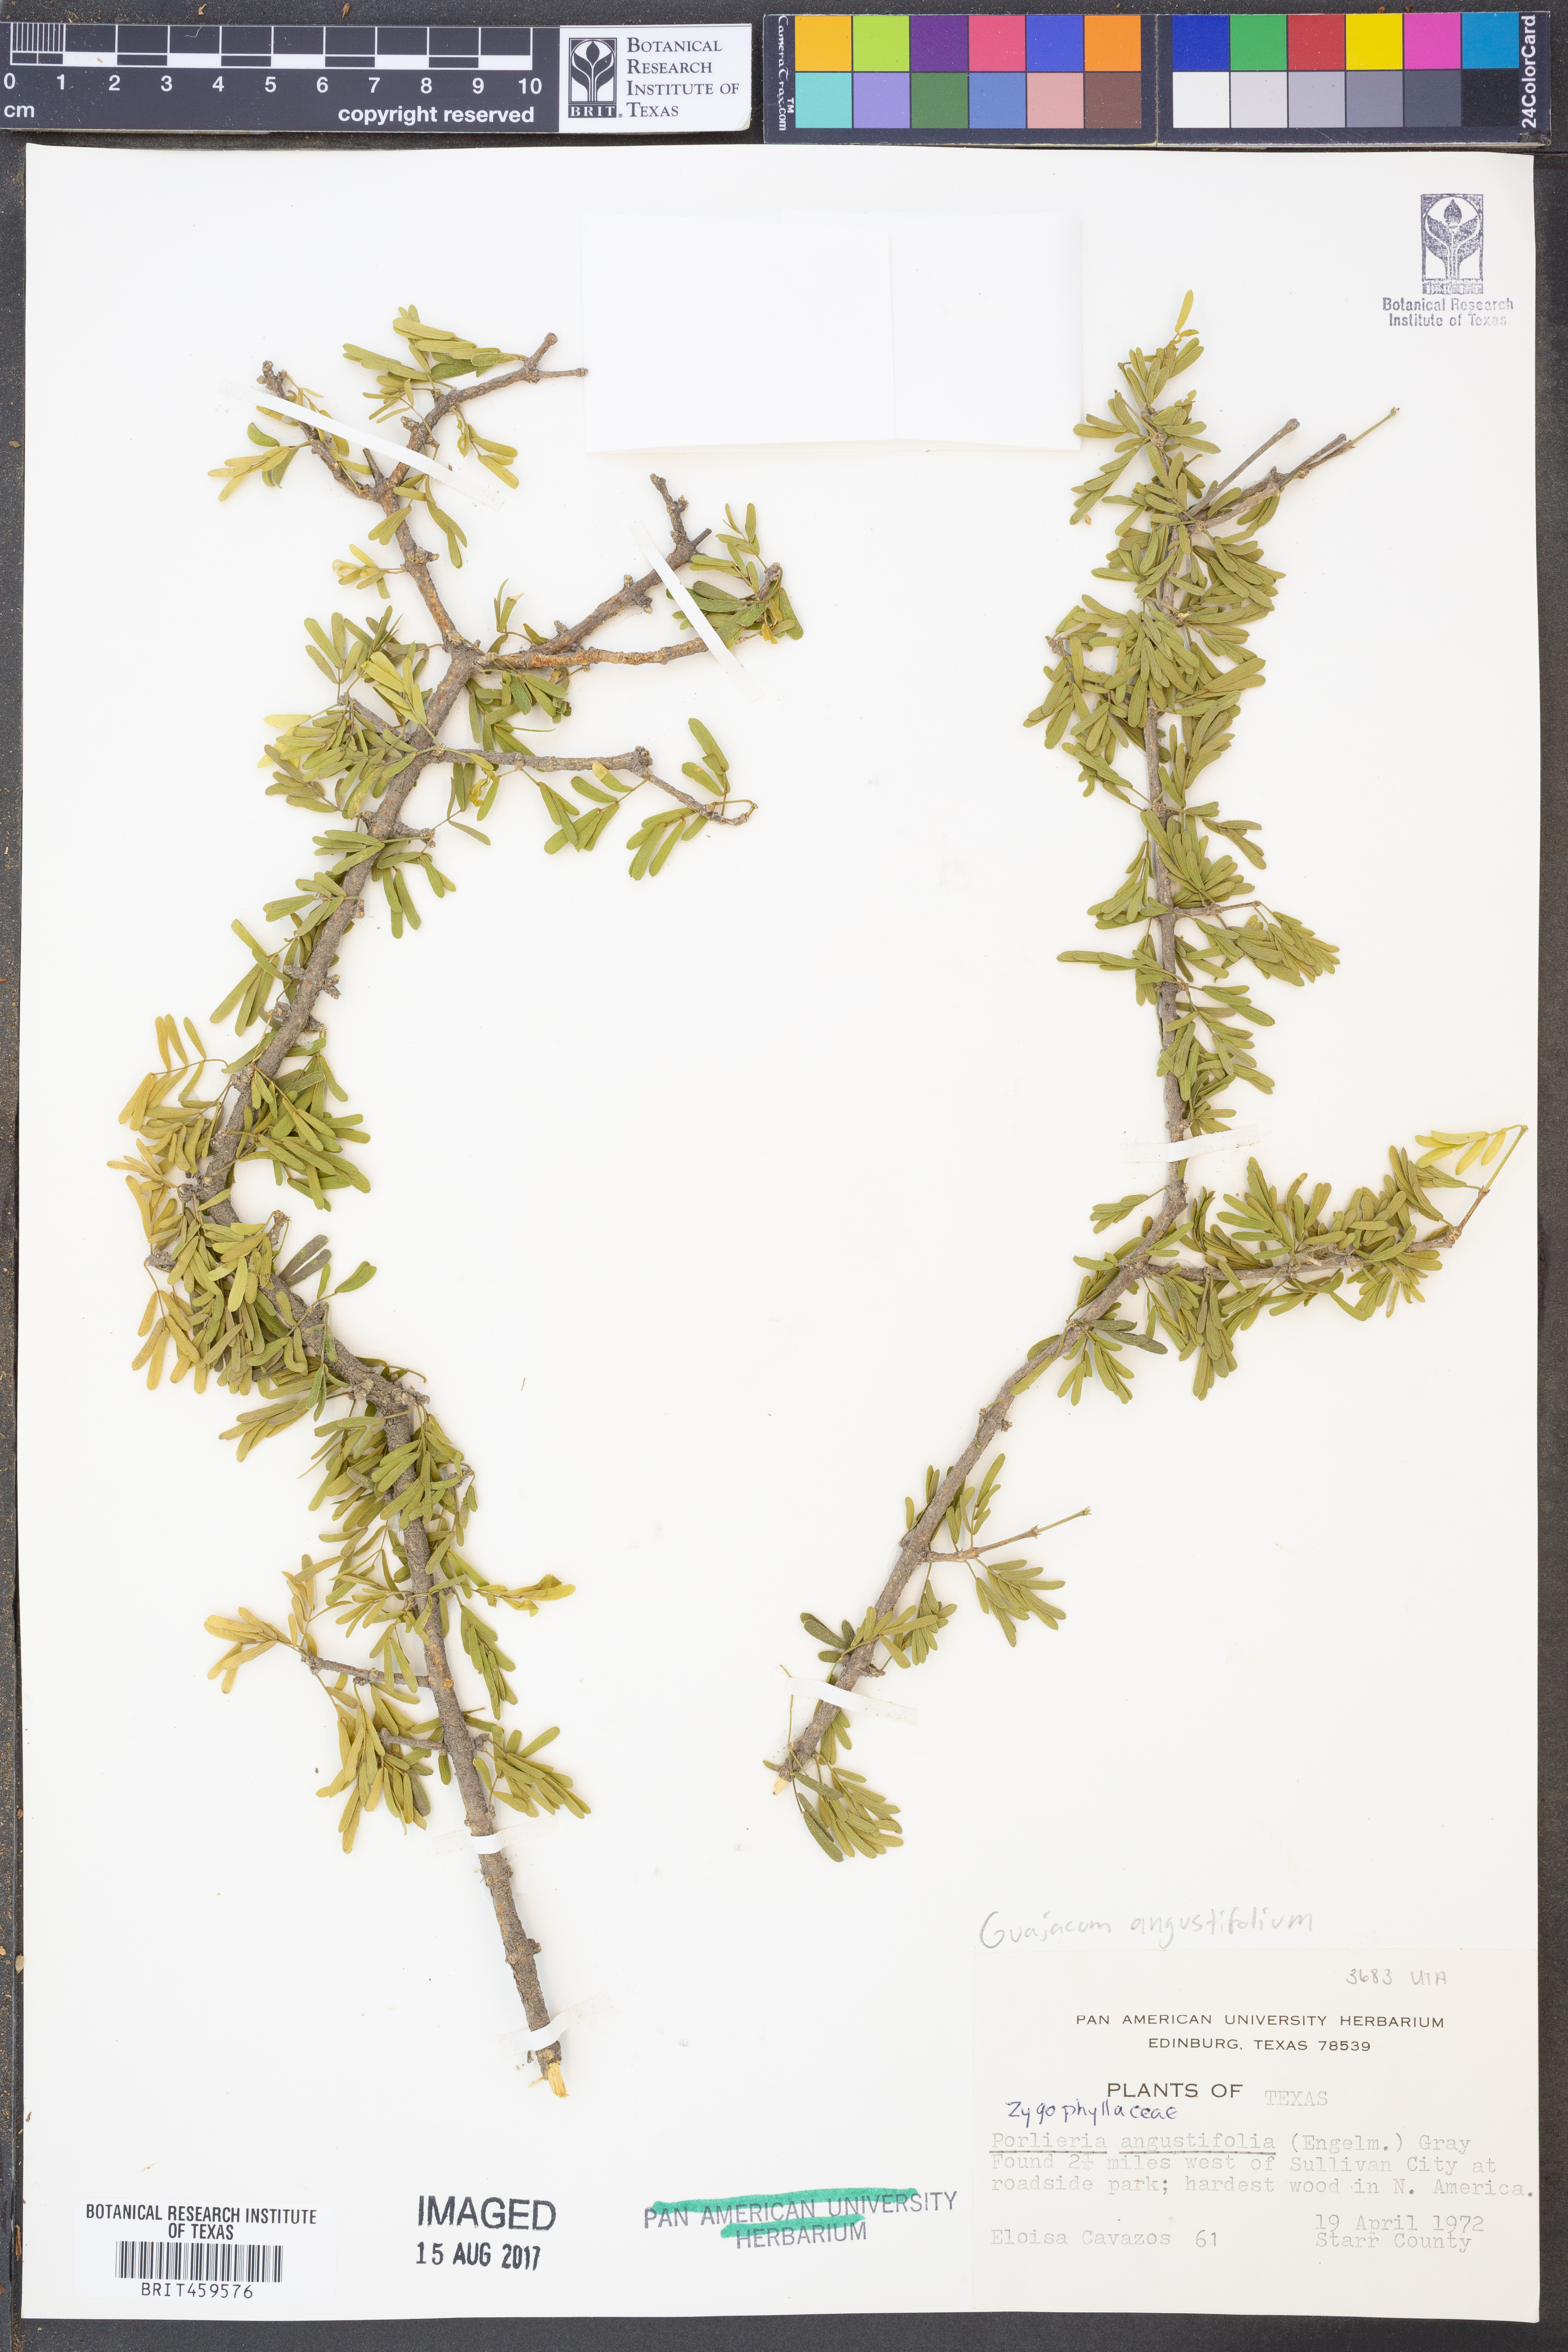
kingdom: Plantae
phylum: Tracheophyta
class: Magnoliopsida
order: Zygophyllales
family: Zygophyllaceae
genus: Porlieria
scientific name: Porlieria angustifolia
